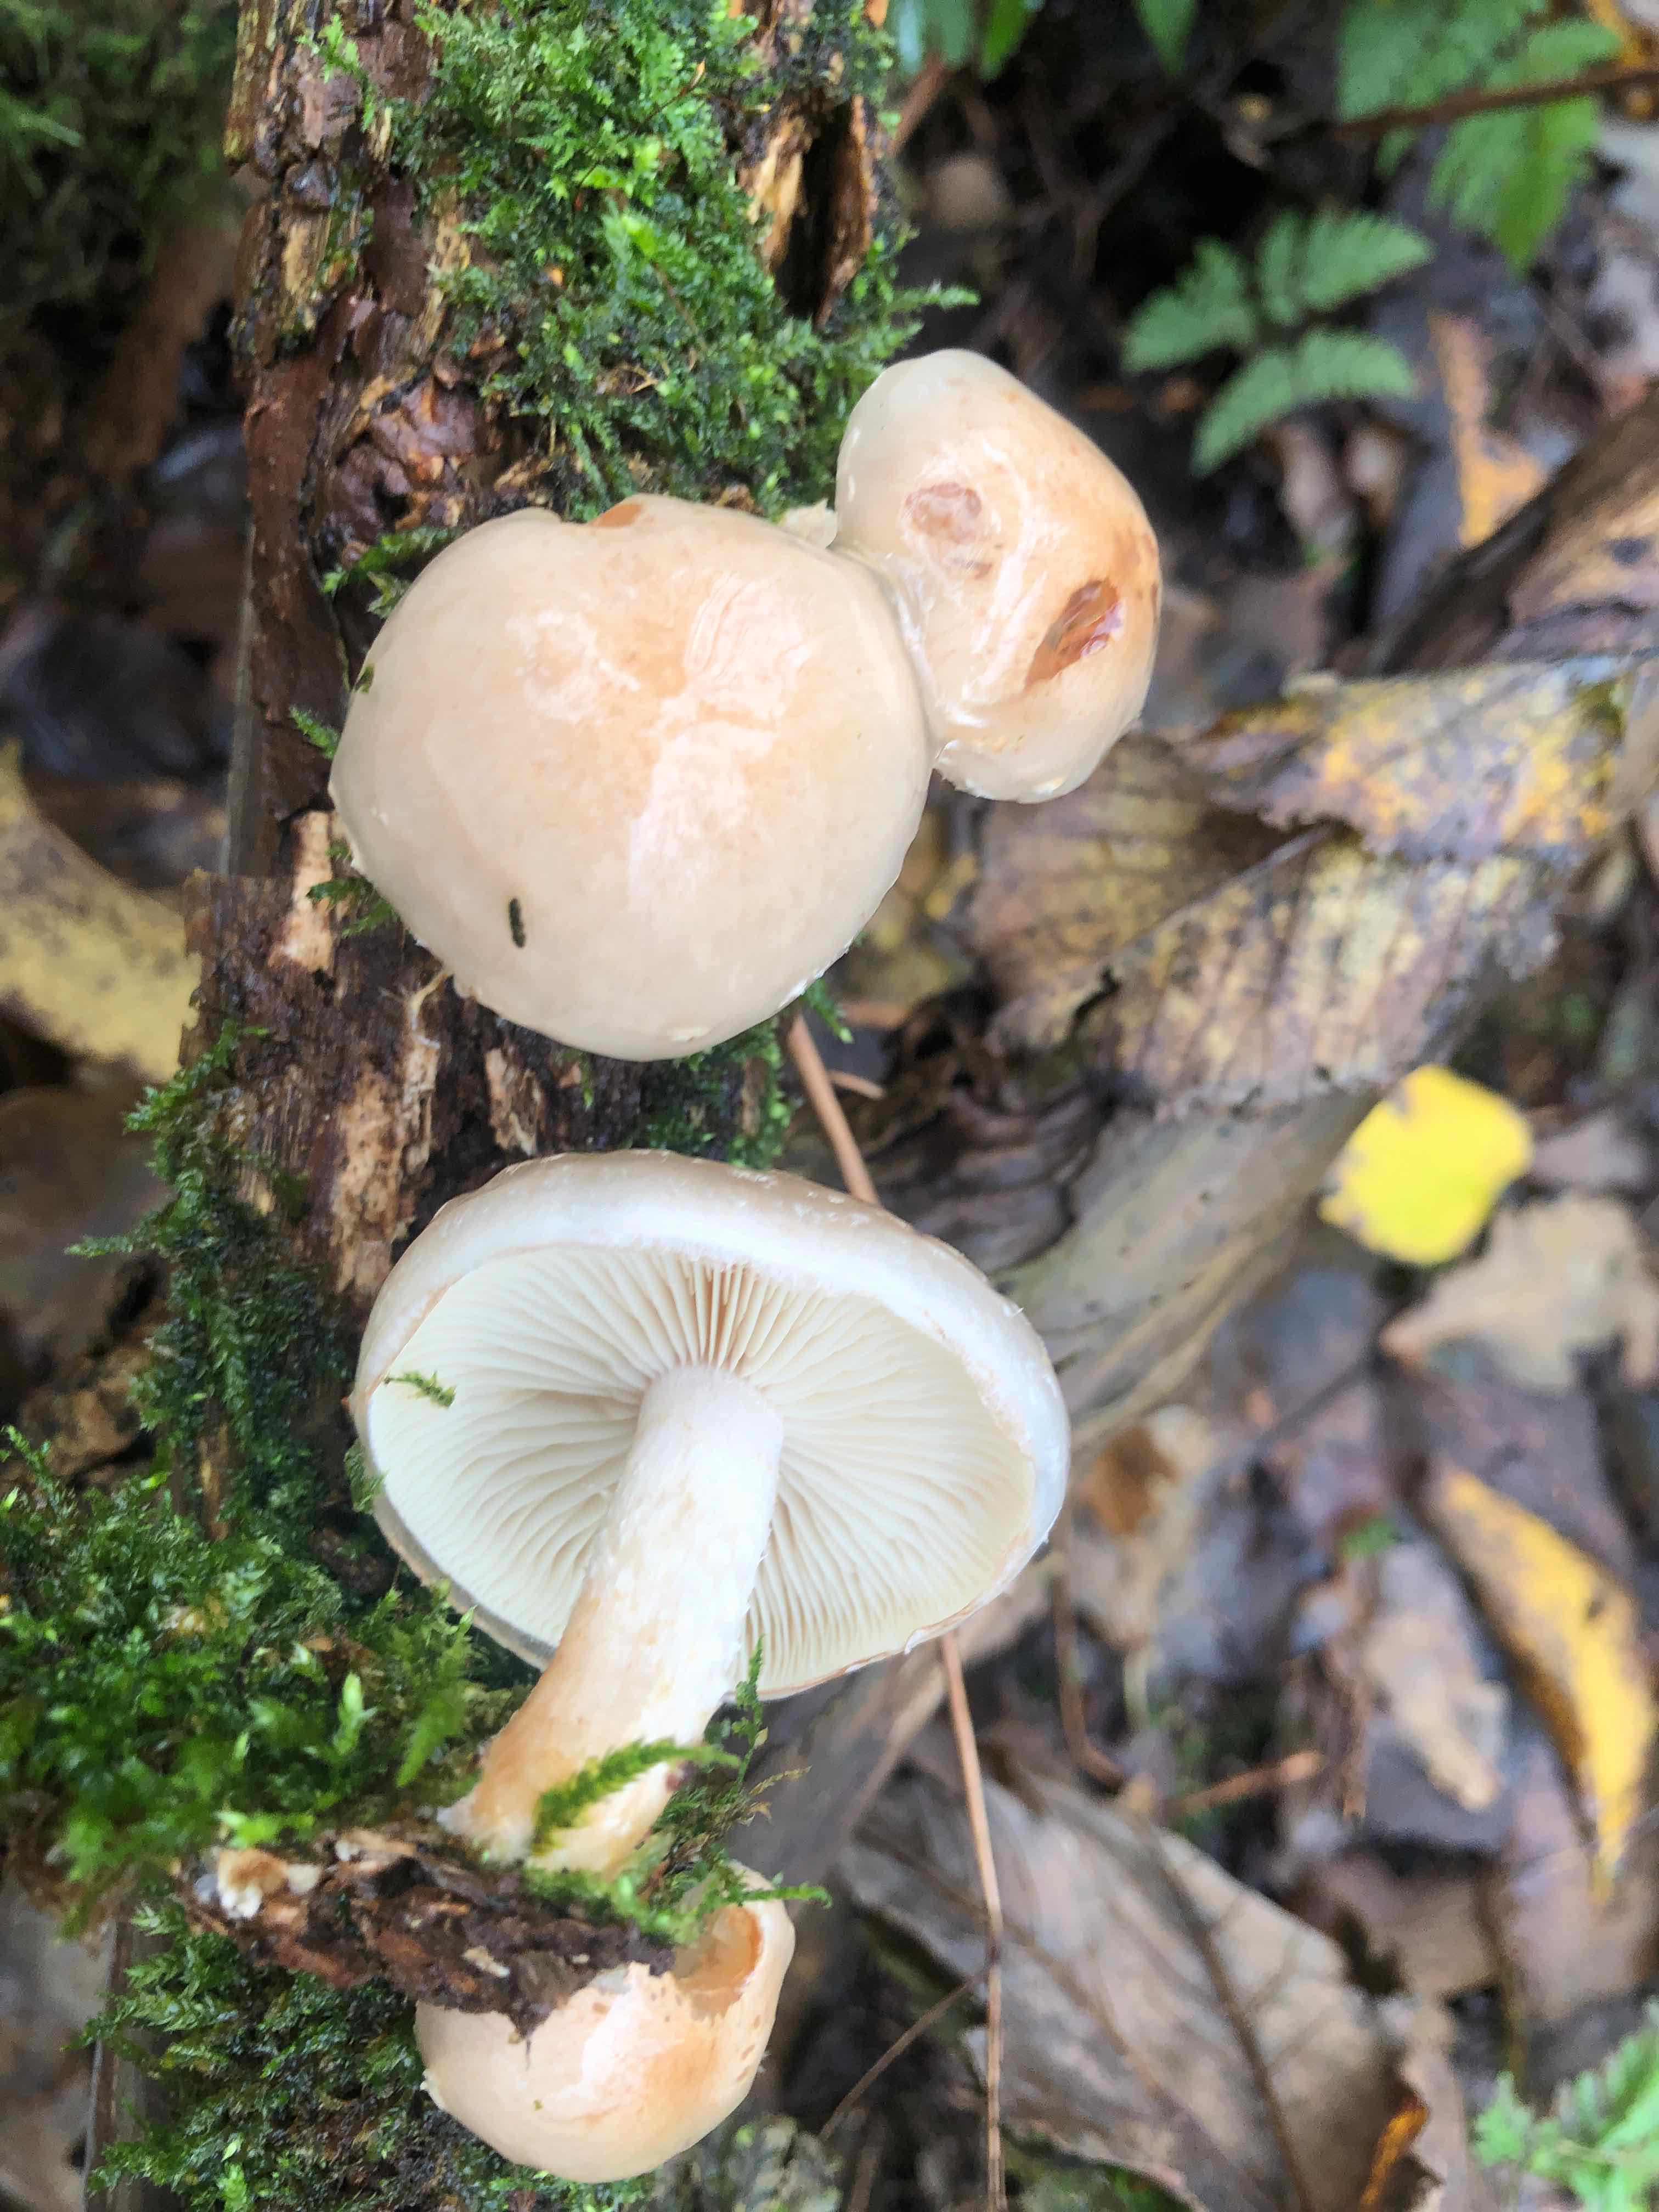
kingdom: Fungi
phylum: Basidiomycota
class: Agaricomycetes
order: Agaricales
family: Strophariaceae
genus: Pholiota
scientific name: Pholiota lenta
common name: løv-skælhat
